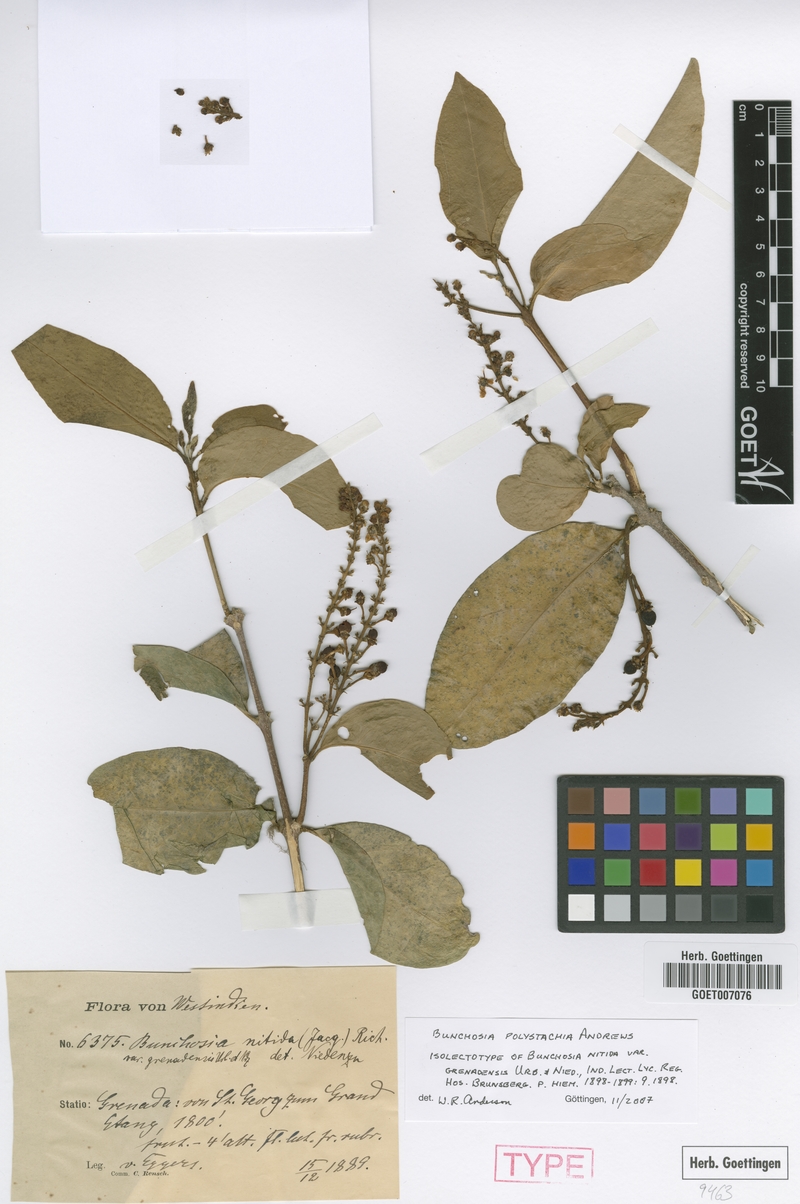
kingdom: Plantae
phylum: Tracheophyta
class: Magnoliopsida
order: Malpighiales
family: Malpighiaceae
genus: Bunchosia
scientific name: Bunchosia polystachya
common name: Woodland coffee
